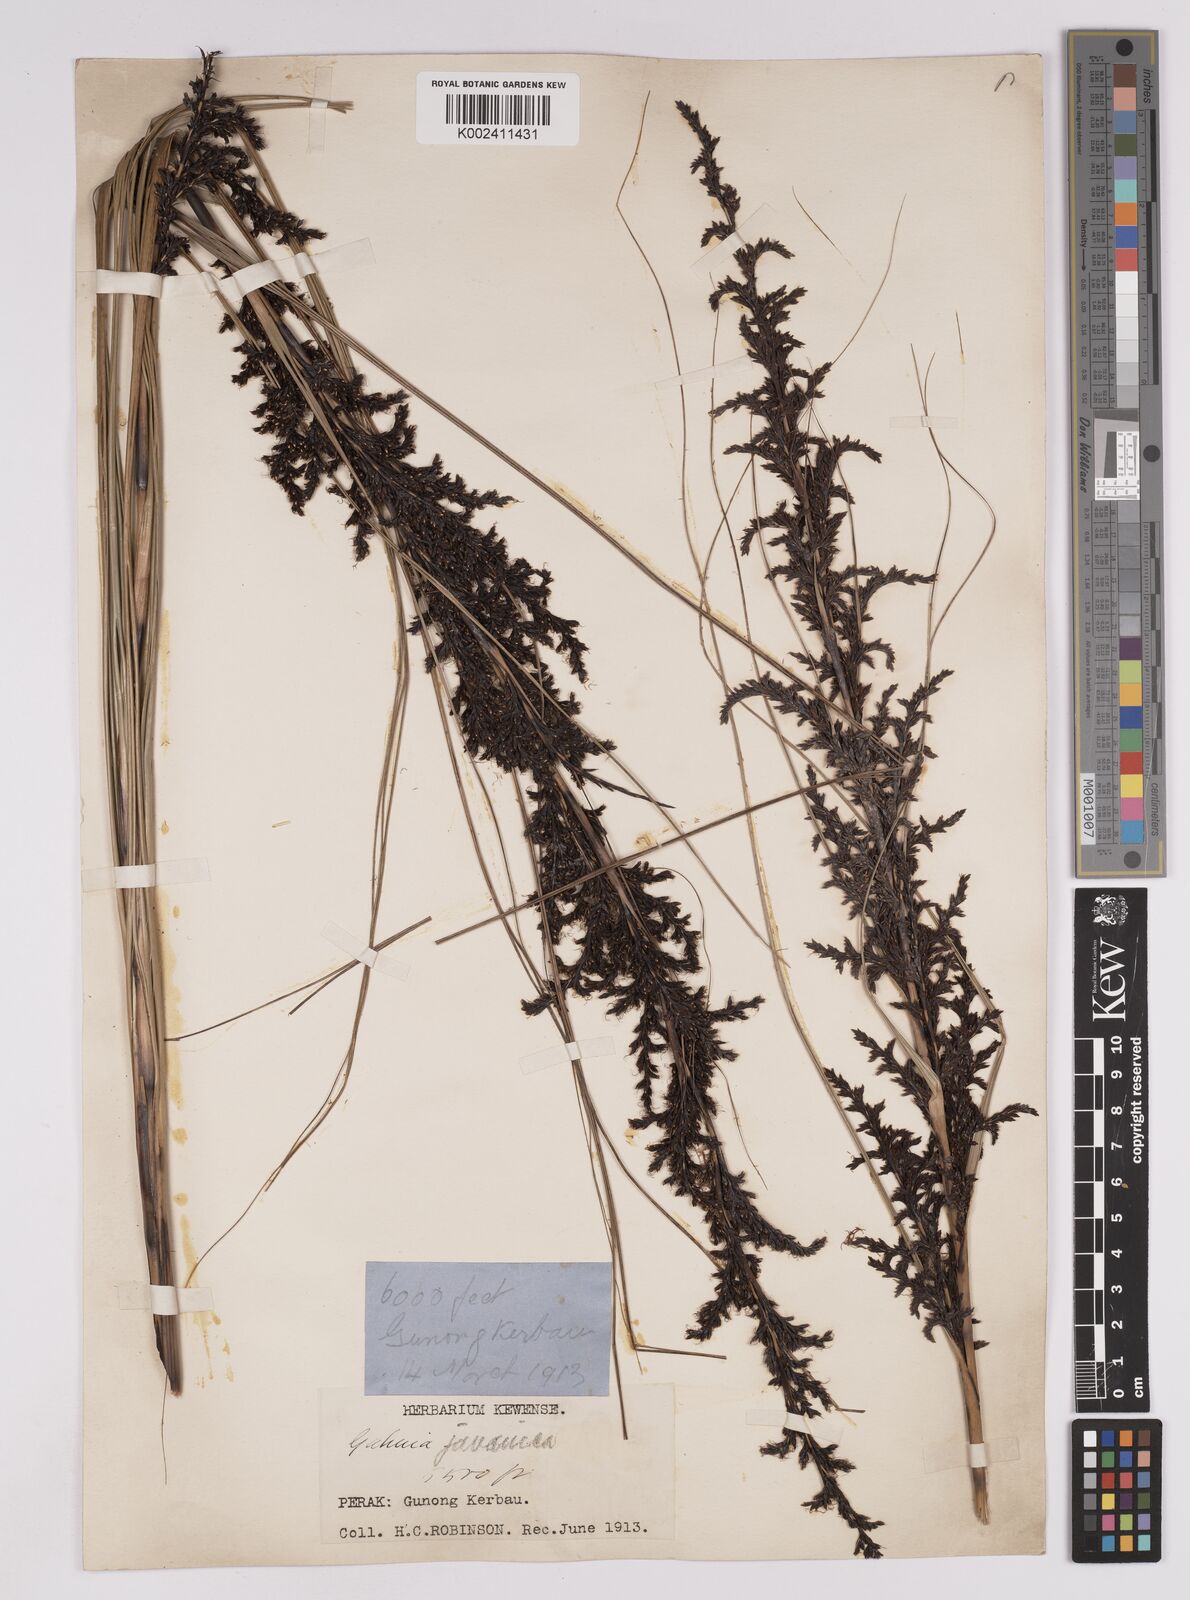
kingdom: Plantae
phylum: Tracheophyta
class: Liliopsida
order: Poales
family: Cyperaceae
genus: Gahnia
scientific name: Gahnia baniensis
